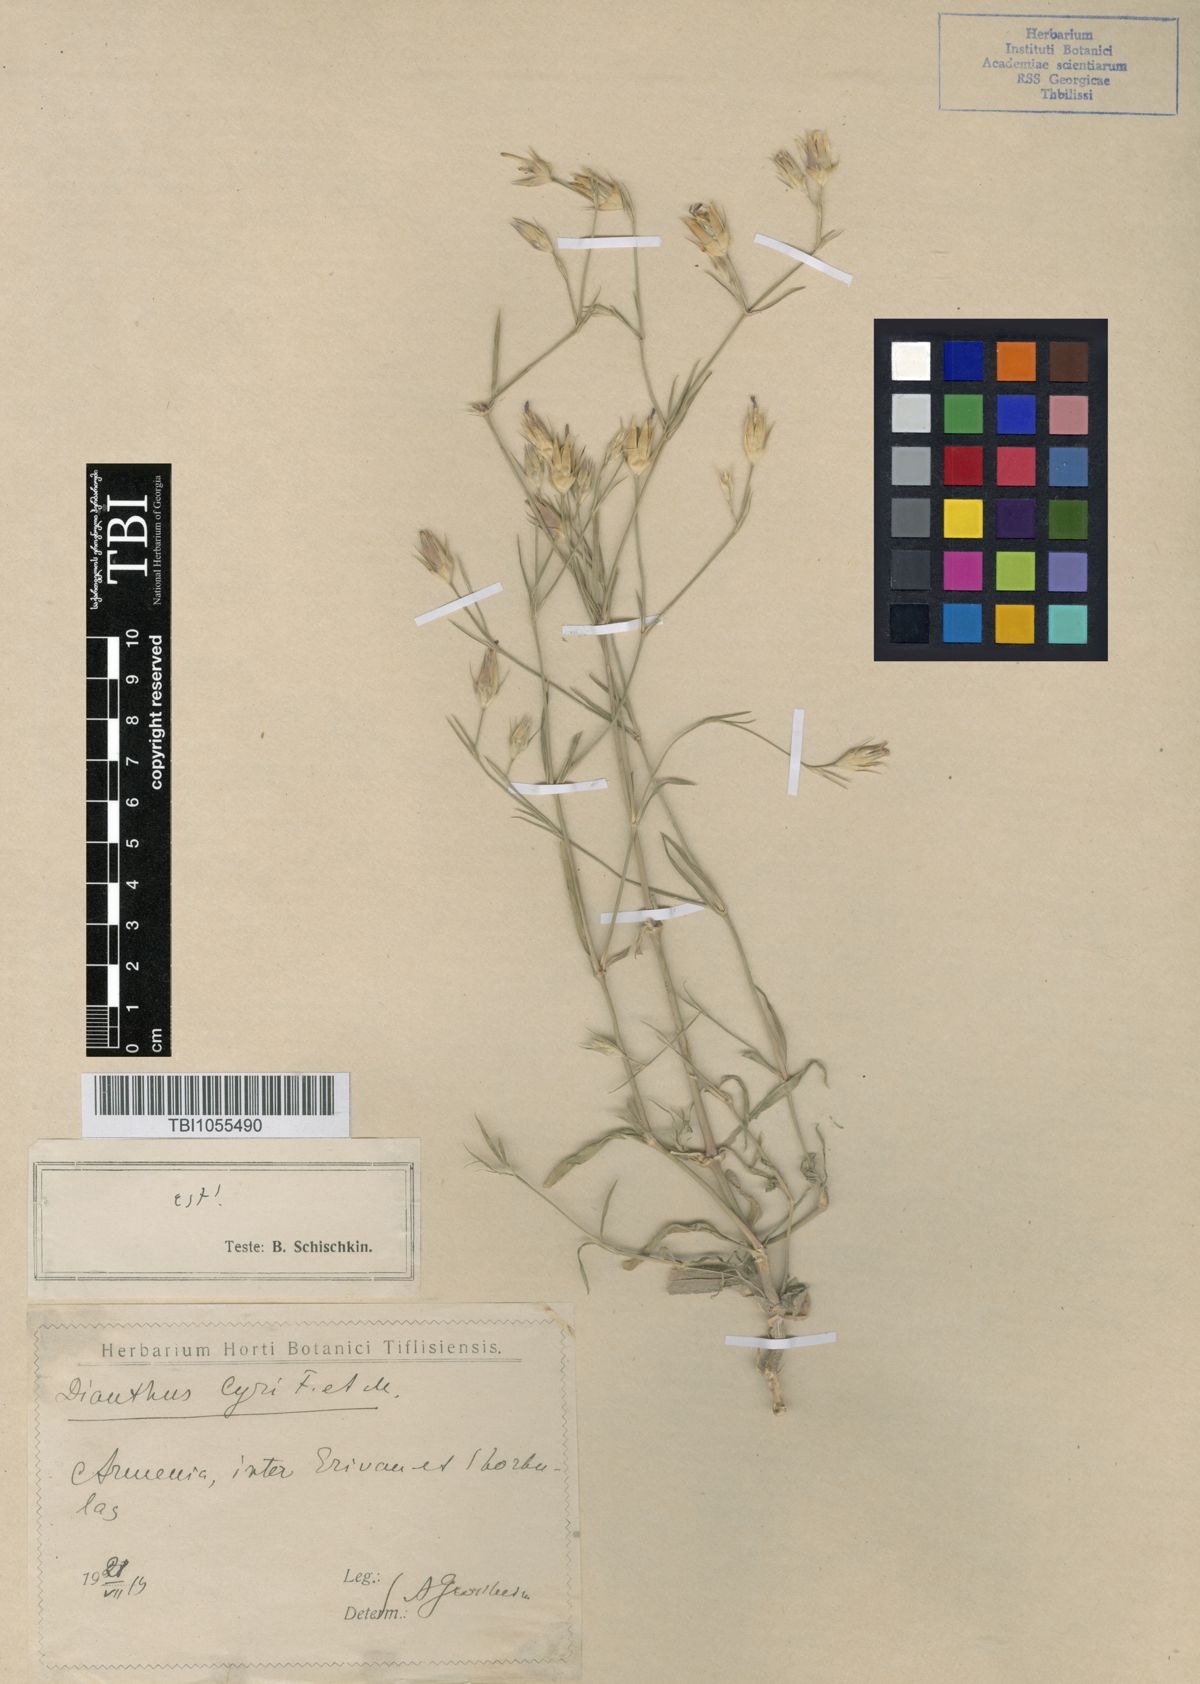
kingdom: Plantae
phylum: Tracheophyta
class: Magnoliopsida
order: Caryophyllales
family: Caryophyllaceae
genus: Dianthus
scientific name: Dianthus cyri
